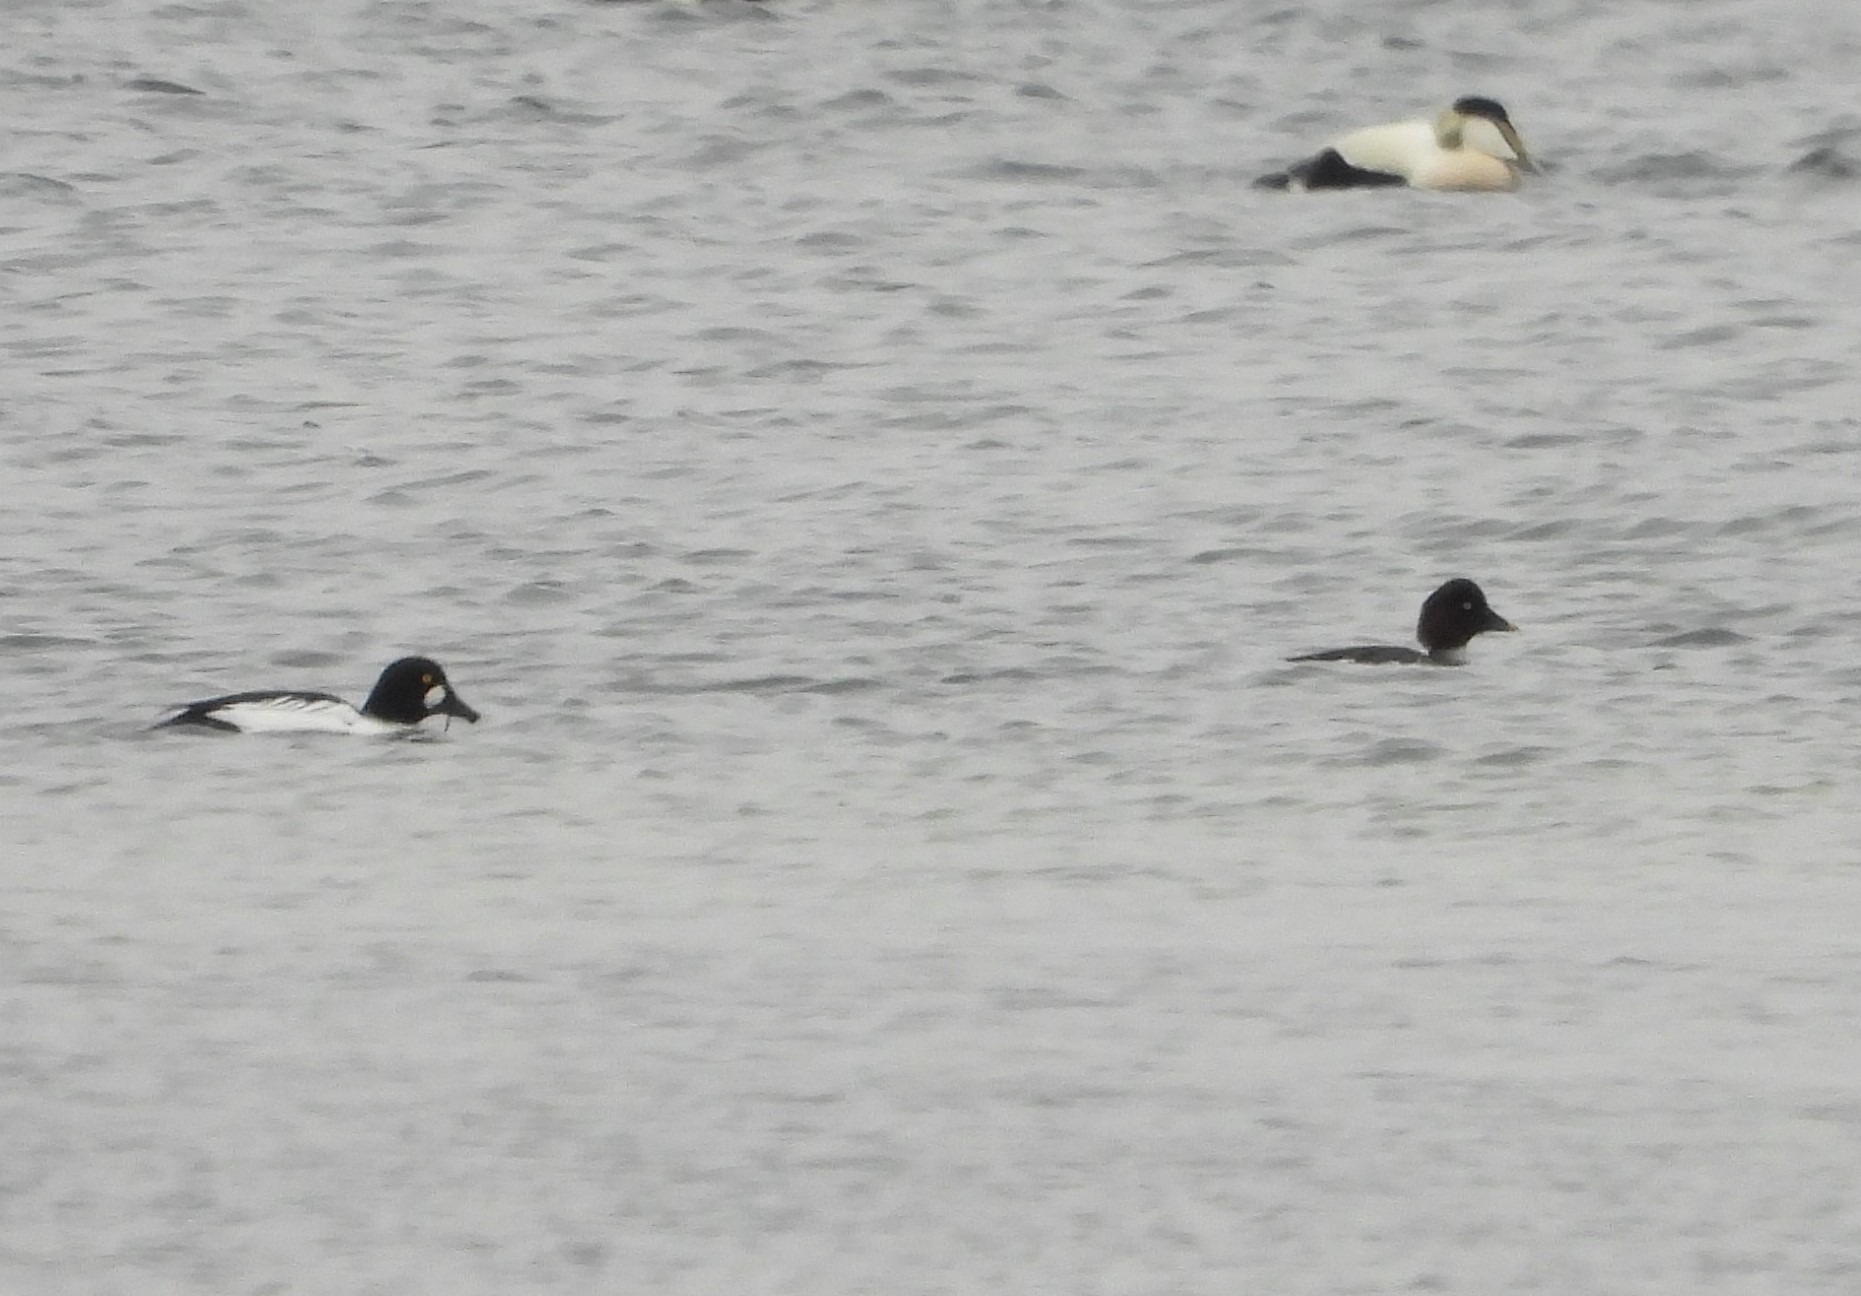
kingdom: Animalia
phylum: Chordata
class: Aves
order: Anseriformes
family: Anatidae
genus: Bucephala
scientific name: Bucephala clangula
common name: Hvinand
